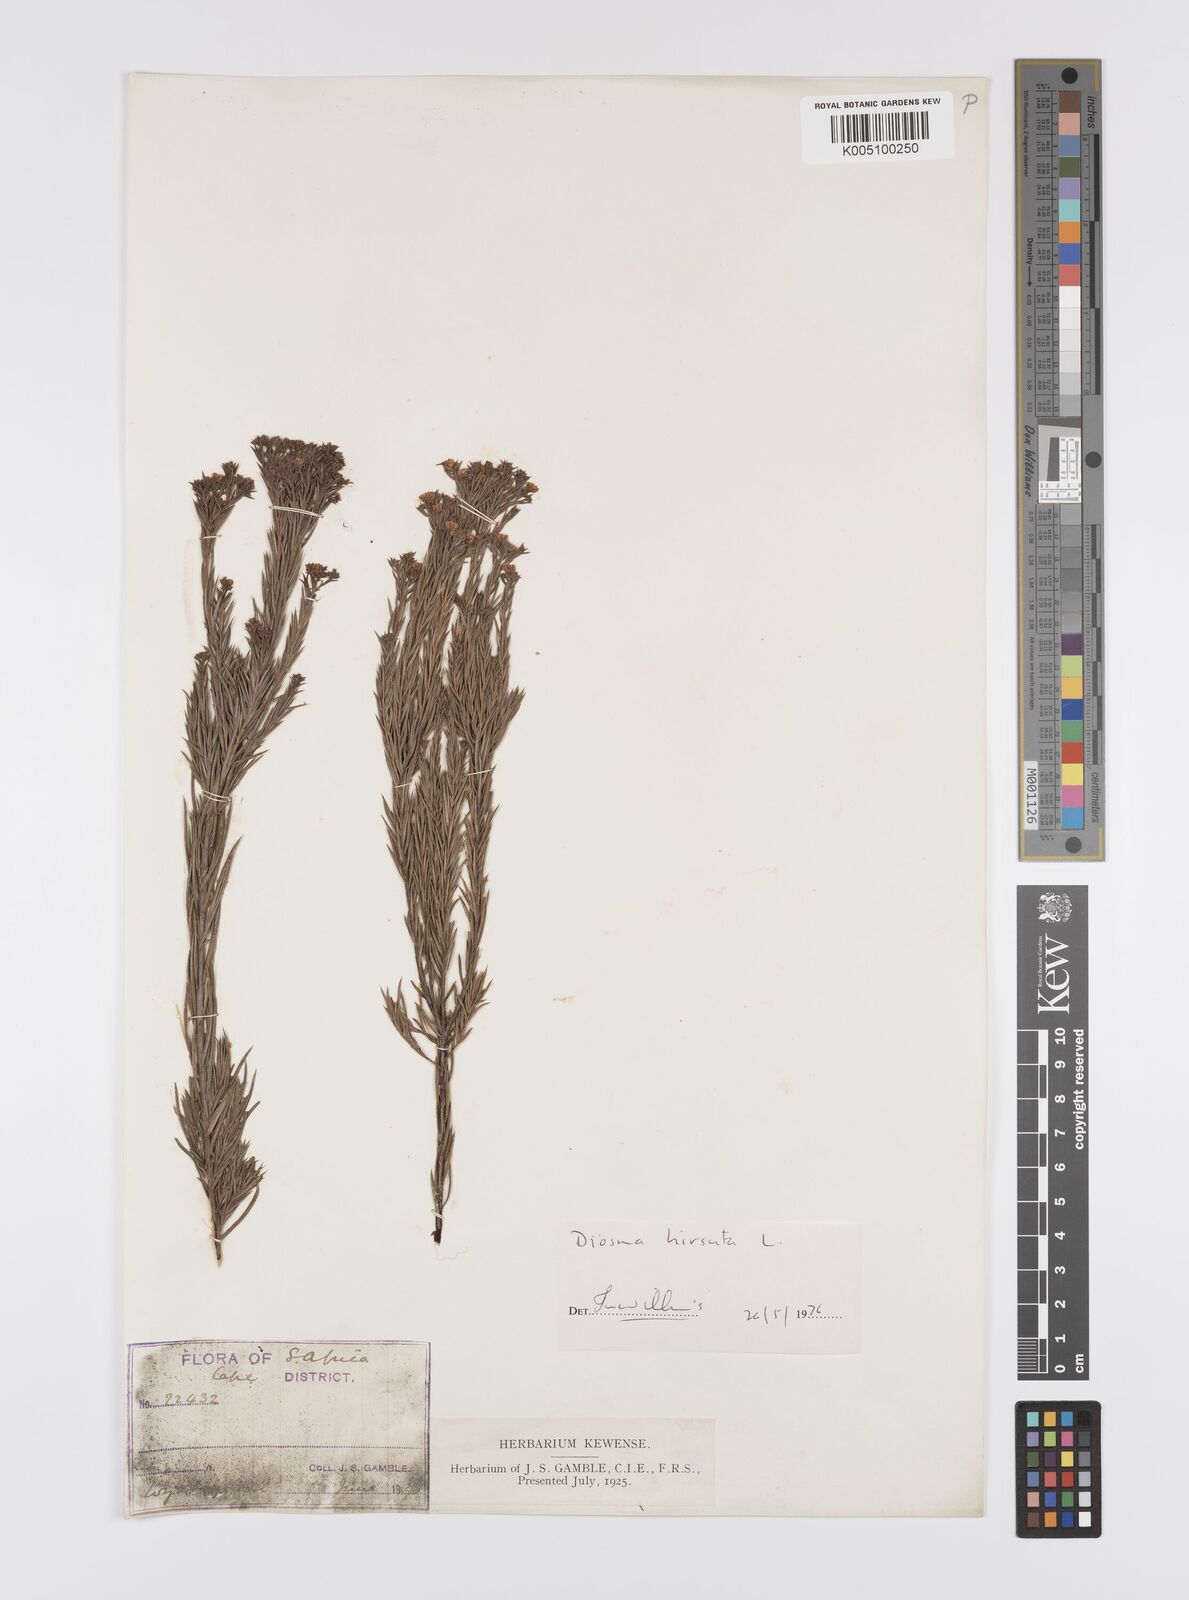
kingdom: Plantae
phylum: Tracheophyta
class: Magnoliopsida
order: Sapindales
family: Rutaceae
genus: Diosma
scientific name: Diosma hirsuta
